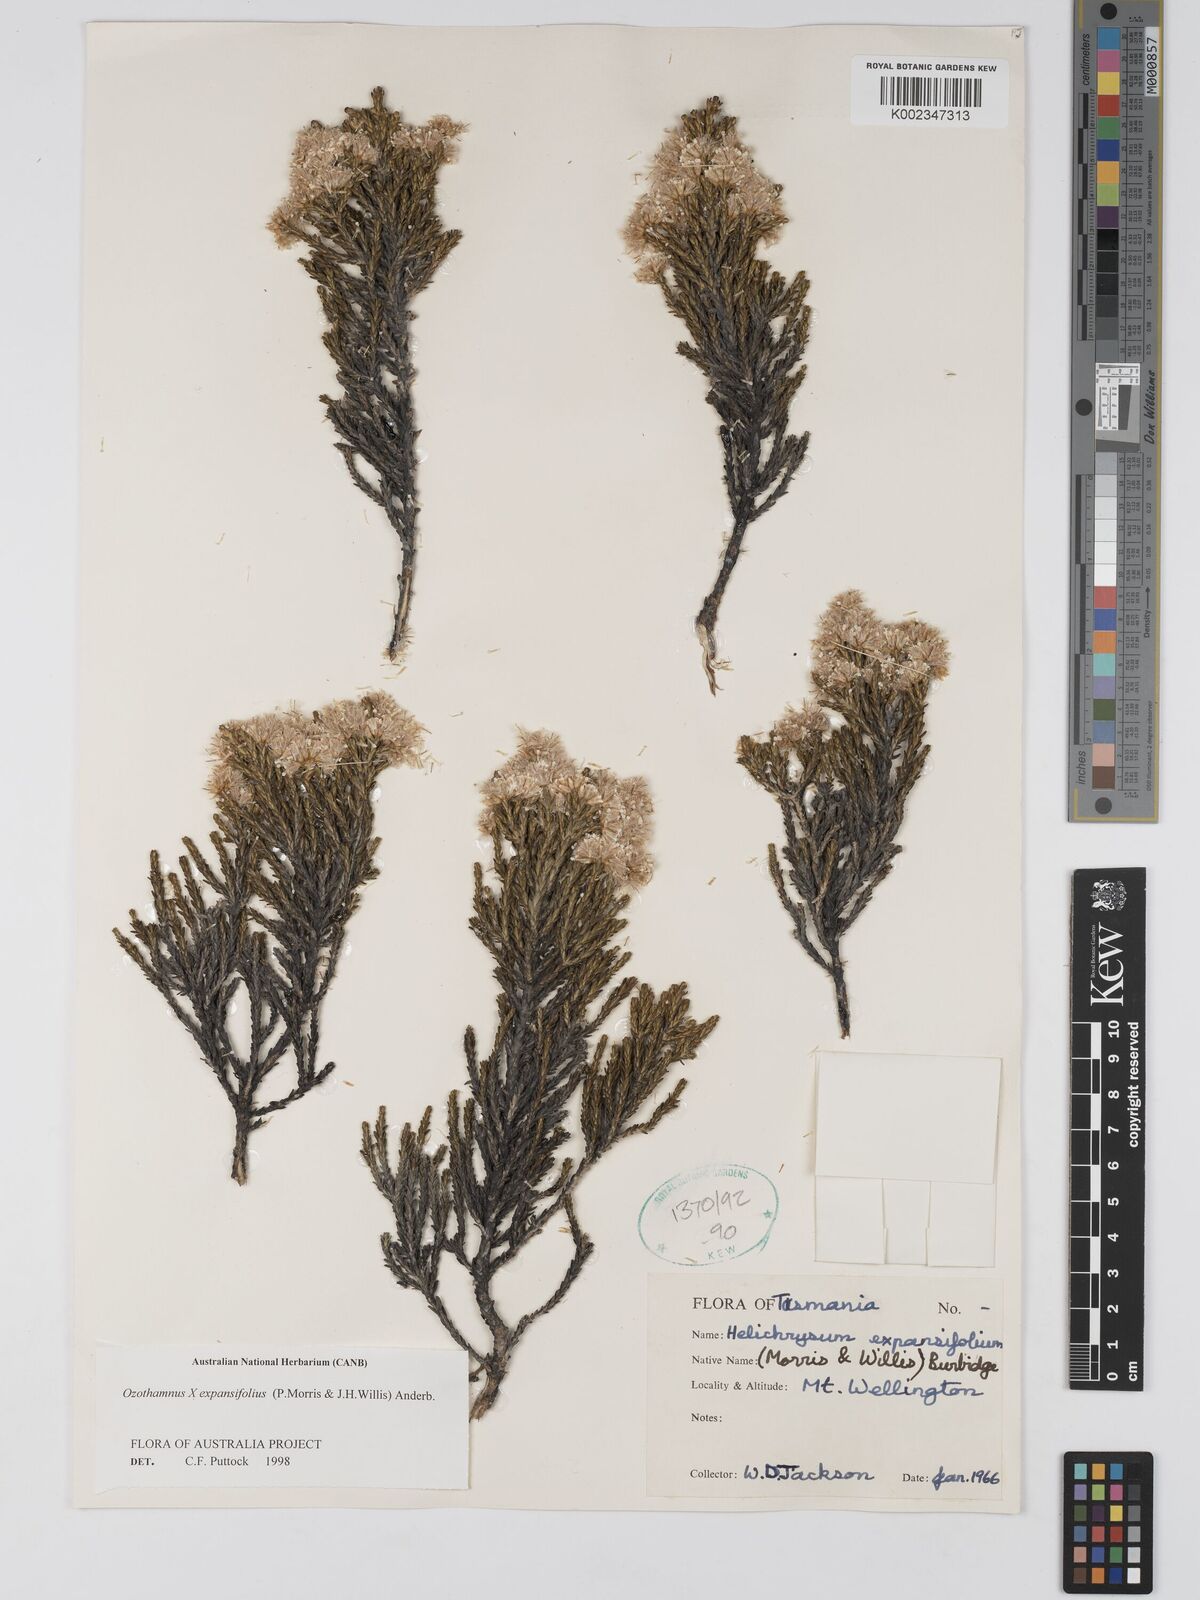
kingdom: Plantae
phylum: Tracheophyta
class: Magnoliopsida
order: Asterales
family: Asteraceae
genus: Ozothamnus
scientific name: Ozothamnus expansifolius
